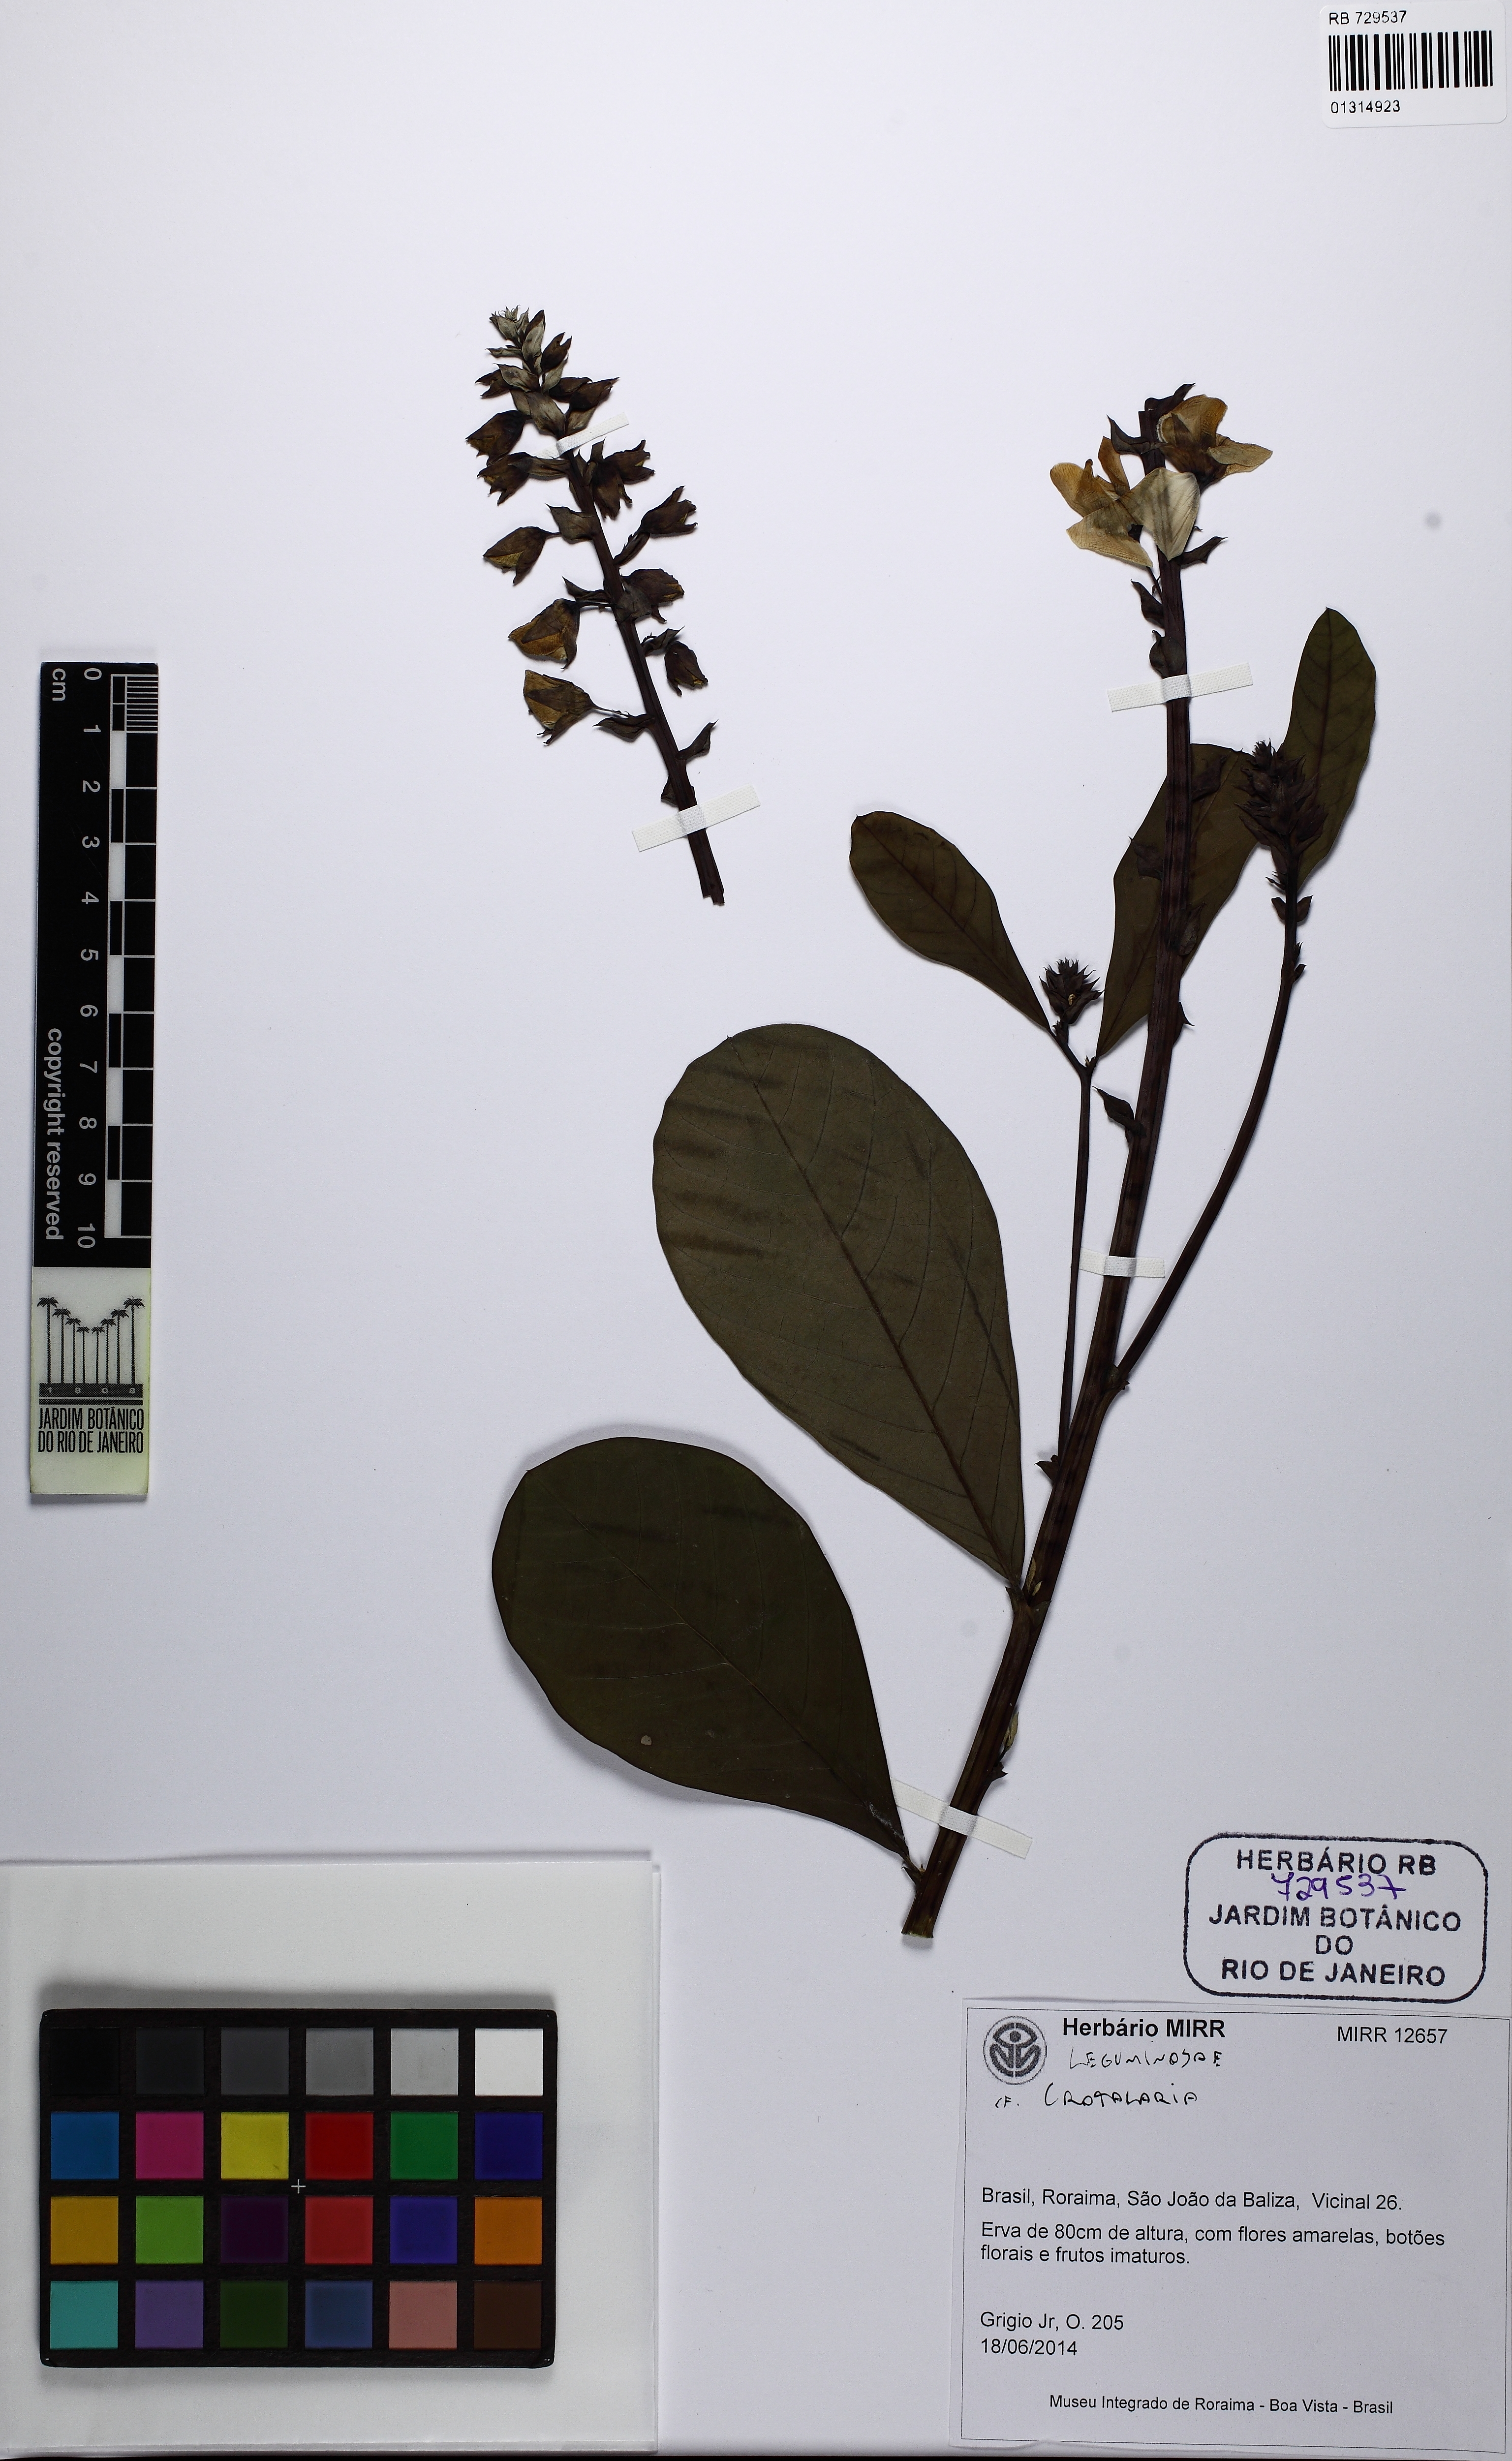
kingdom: Plantae
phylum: Tracheophyta
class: Magnoliopsida
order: Fabales
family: Fabaceae
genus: Crotalaria
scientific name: Crotalaria
